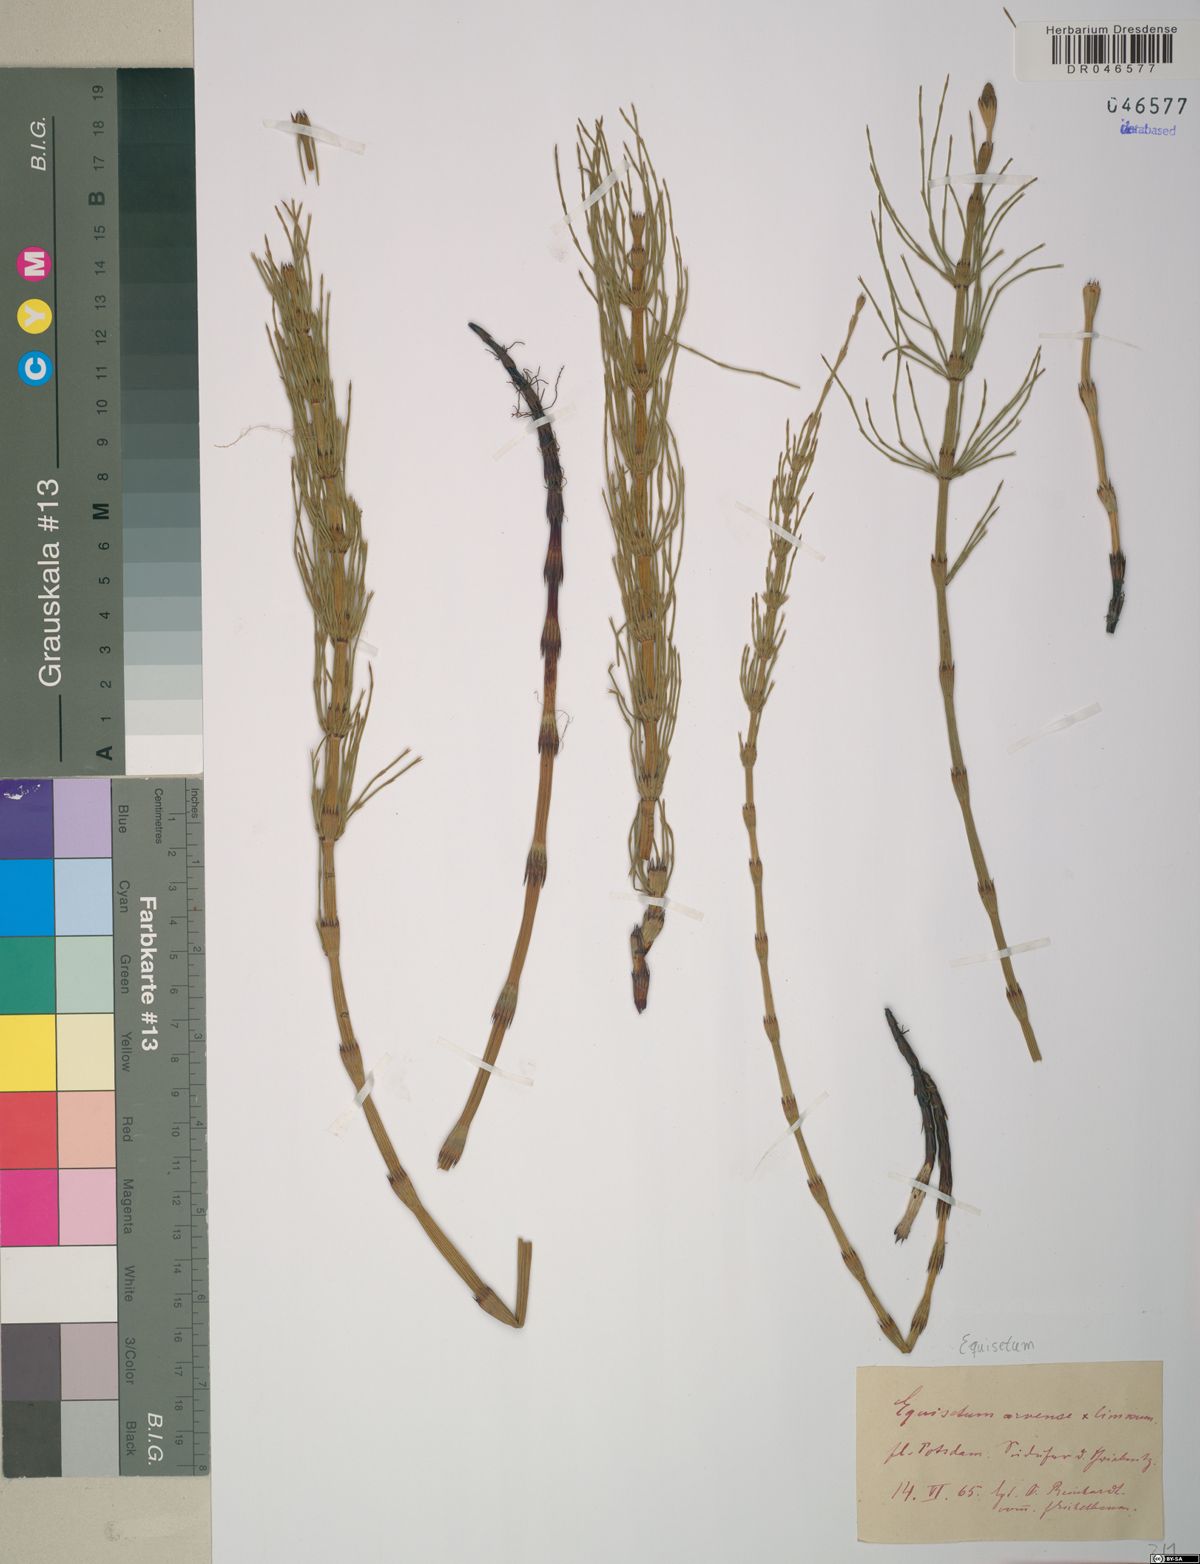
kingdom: Plantae
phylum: Tracheophyta
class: Polypodiopsida
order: Equisetales
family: Equisetaceae
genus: Equisetum
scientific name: Equisetum arvense
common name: Field horsetail
